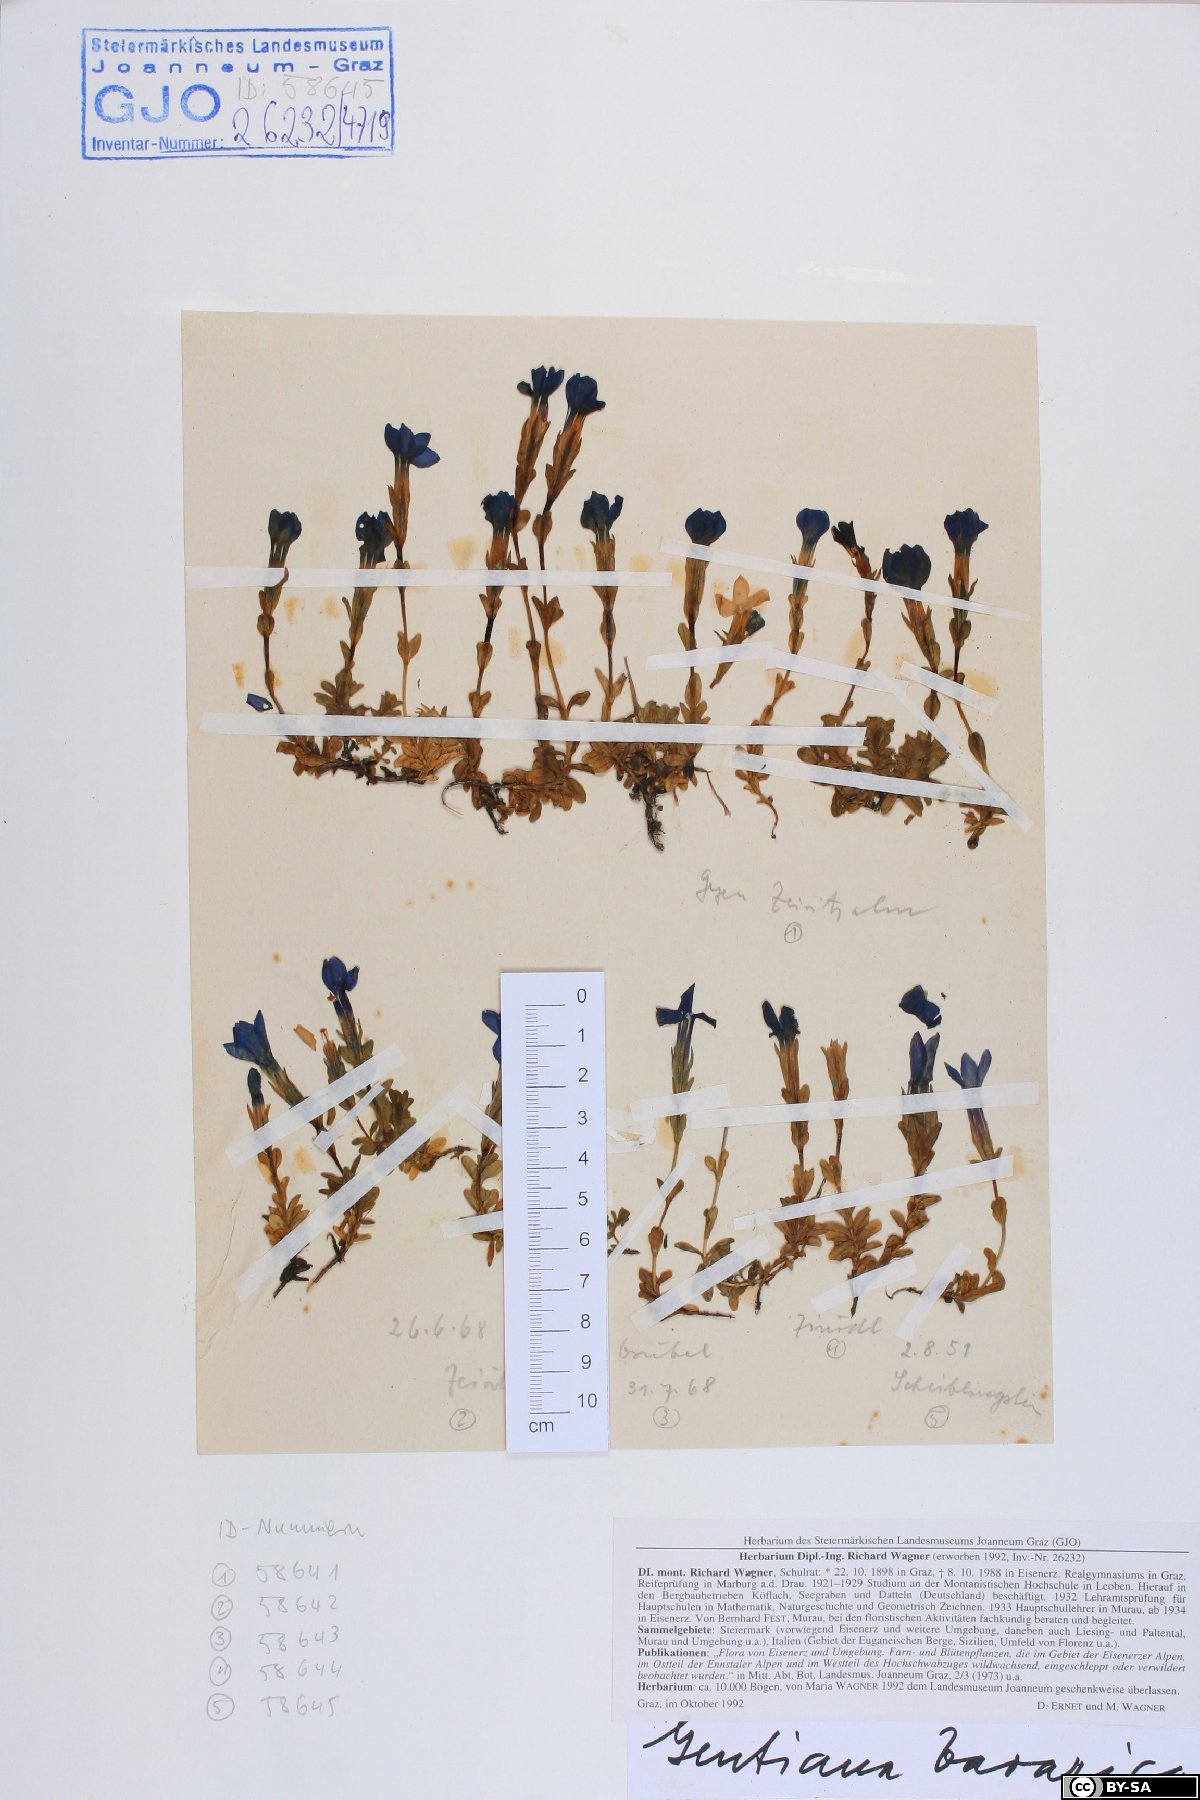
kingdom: Plantae
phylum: Tracheophyta
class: Magnoliopsida
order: Gentianales
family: Gentianaceae
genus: Gentiana
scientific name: Gentiana bavarica
